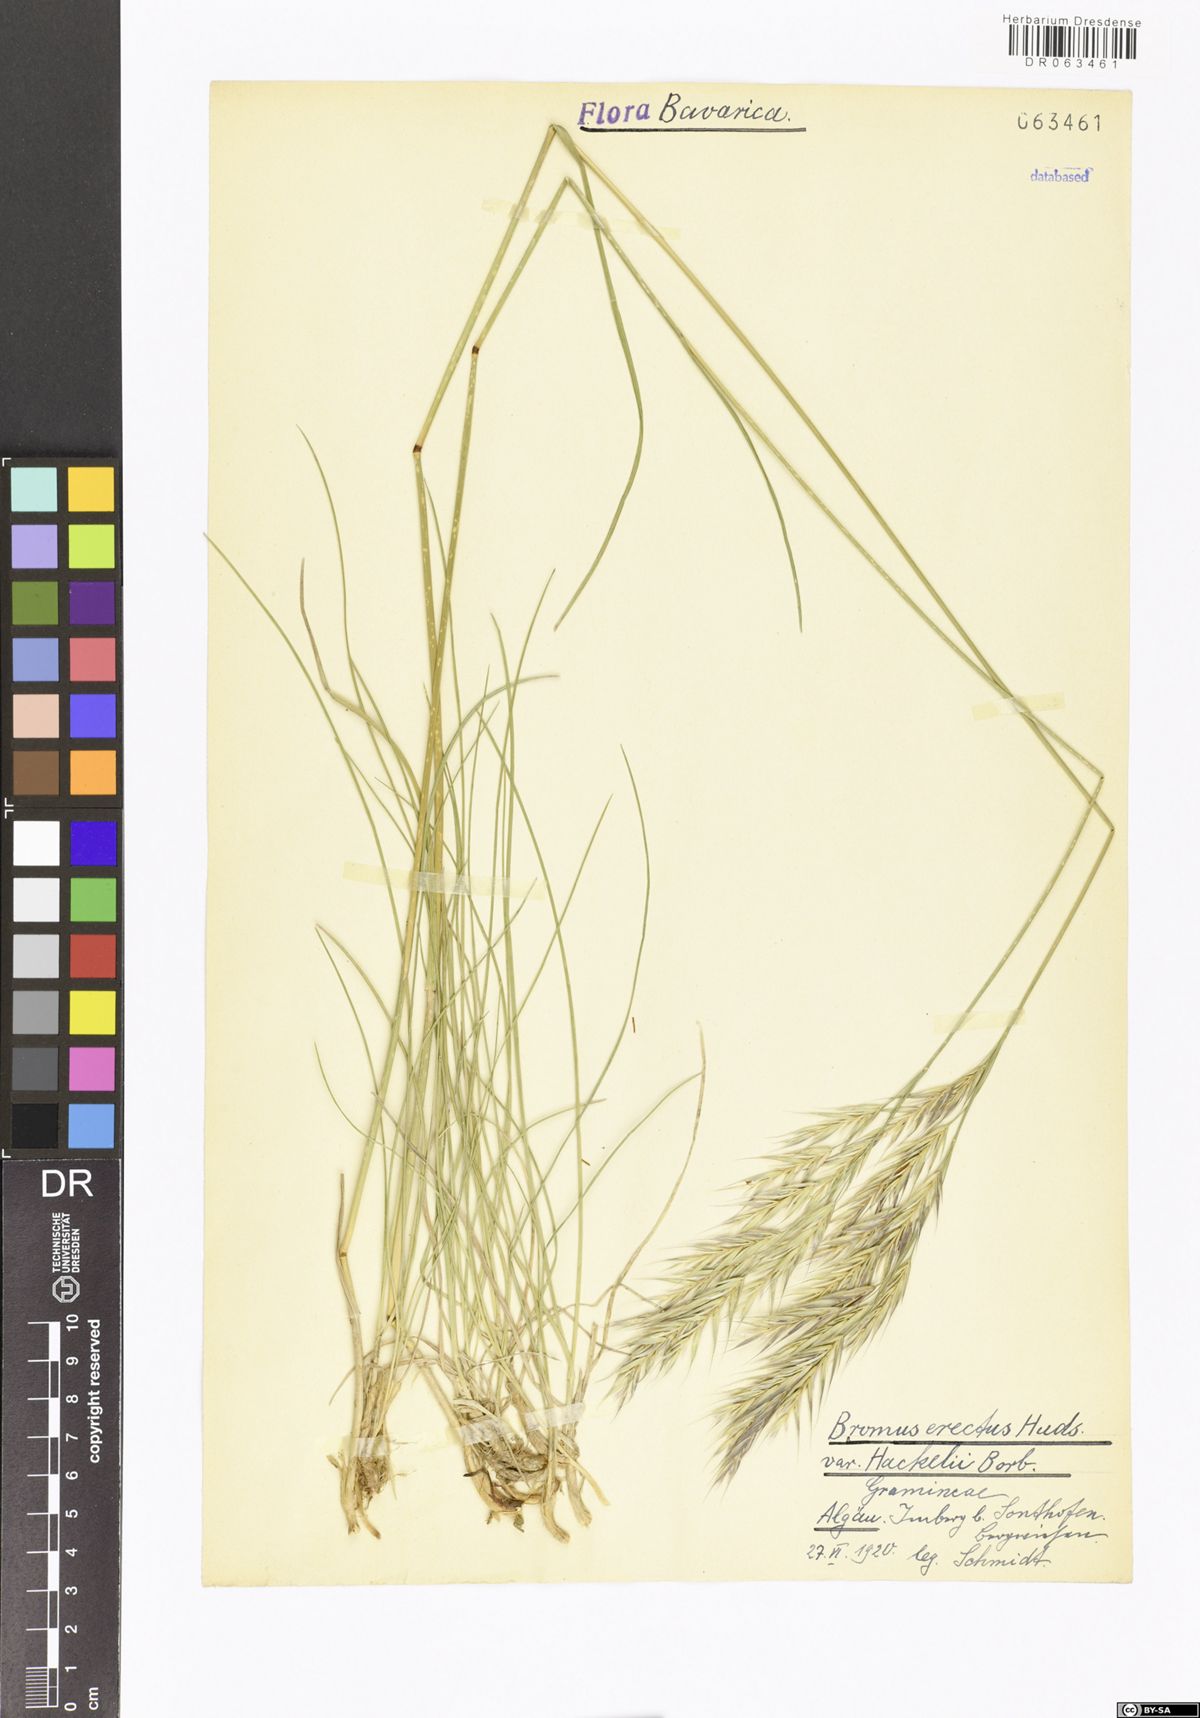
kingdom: Plantae
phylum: Tracheophyta
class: Liliopsida
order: Poales
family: Poaceae
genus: Bromus
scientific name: Bromus erectus
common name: Erect brome
